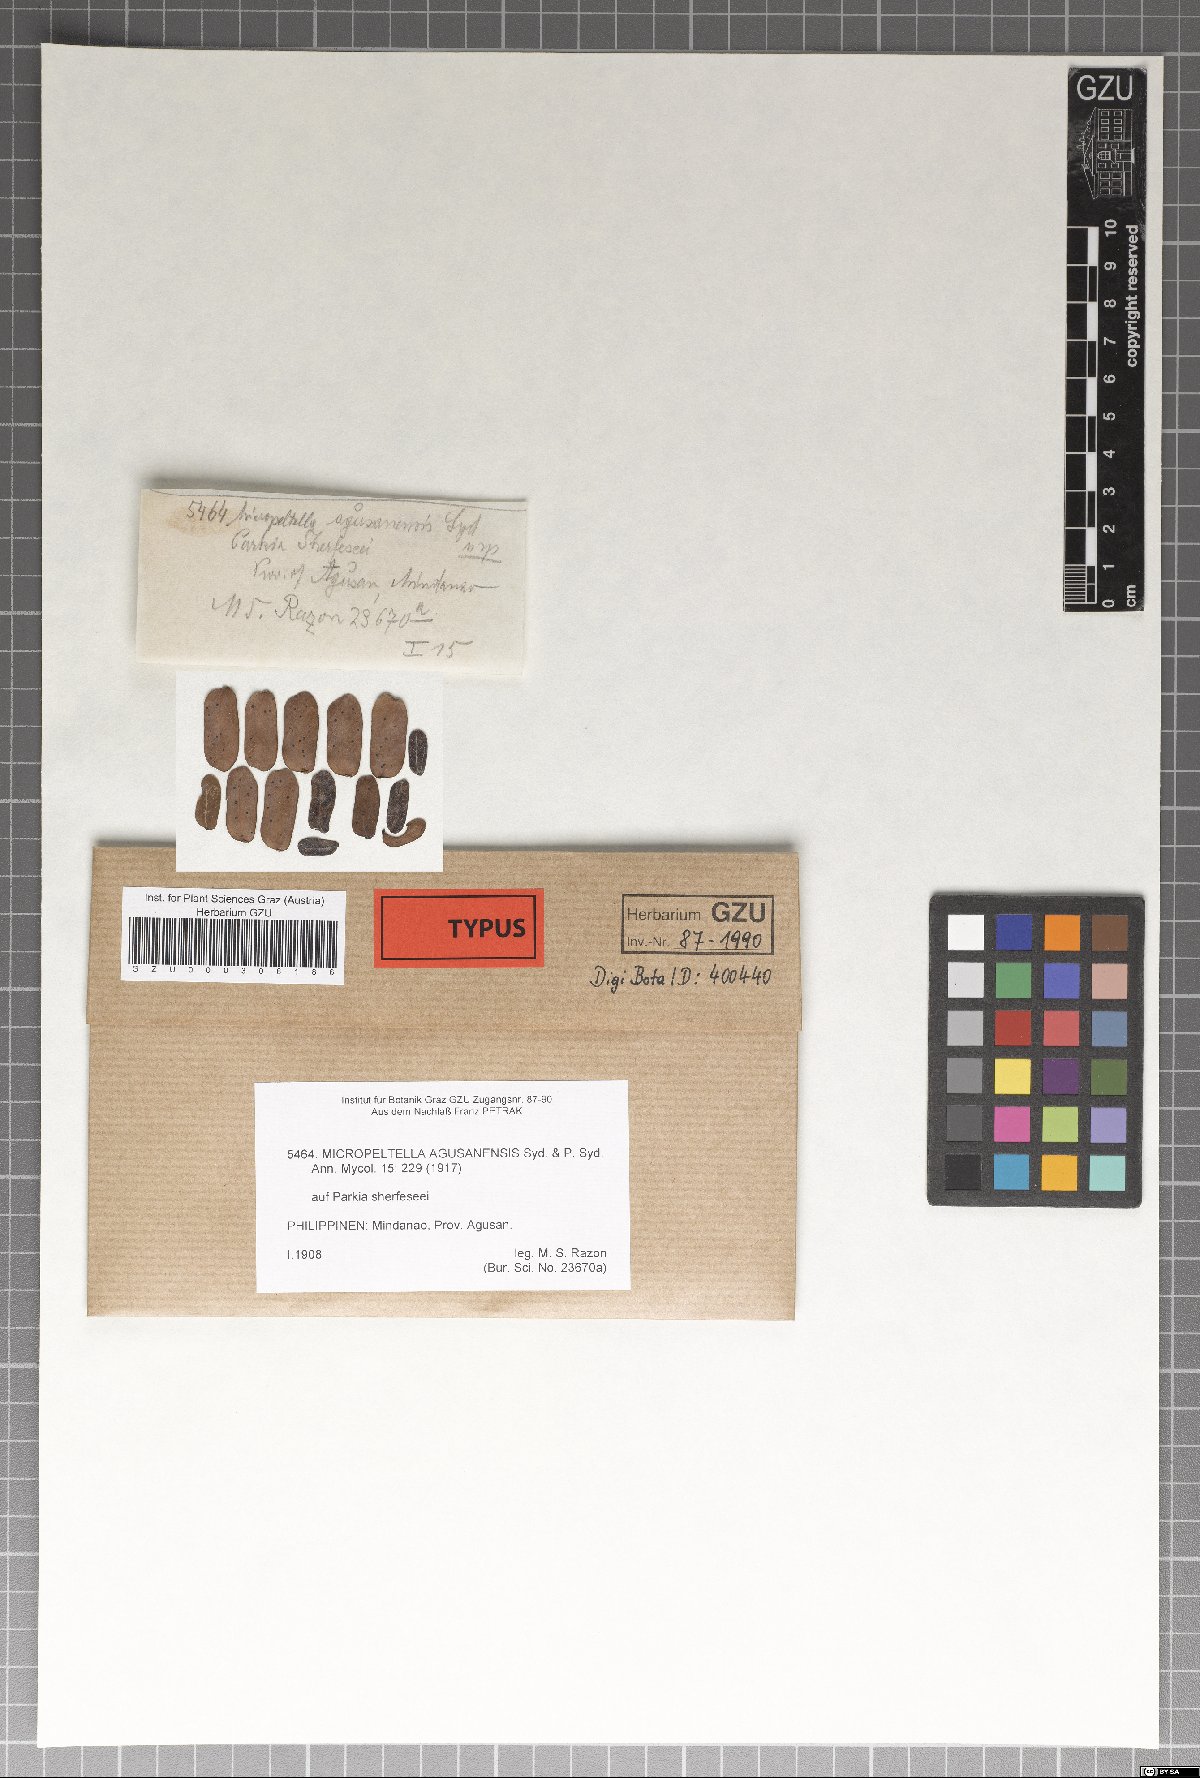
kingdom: Fungi
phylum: Ascomycota
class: Dothideomycetes
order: Microthyriales
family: Micropeltidaceae
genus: Micropeltella
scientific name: Micropeltella agusanensis
